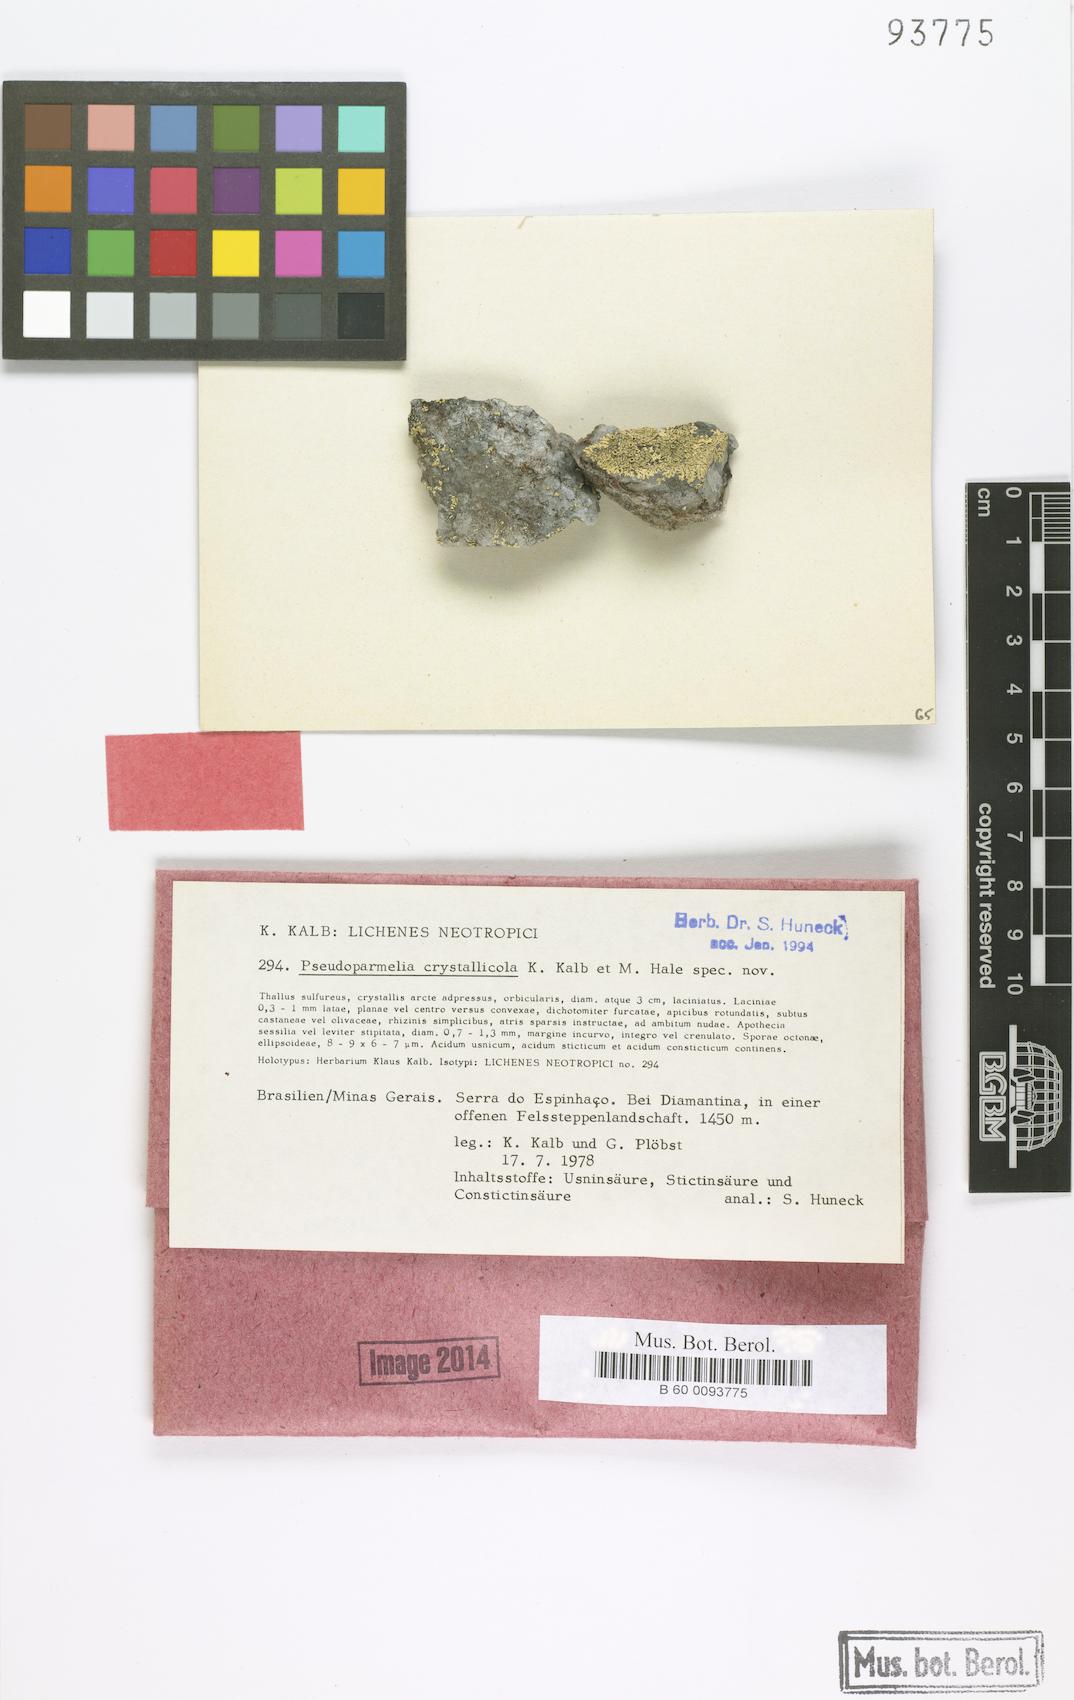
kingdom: Fungi
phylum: Ascomycota
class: Lecanoromycetes
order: Lecanorales
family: Parmeliaceae
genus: Xanthoparmelia
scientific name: Xanthoparmelia crystallicola
